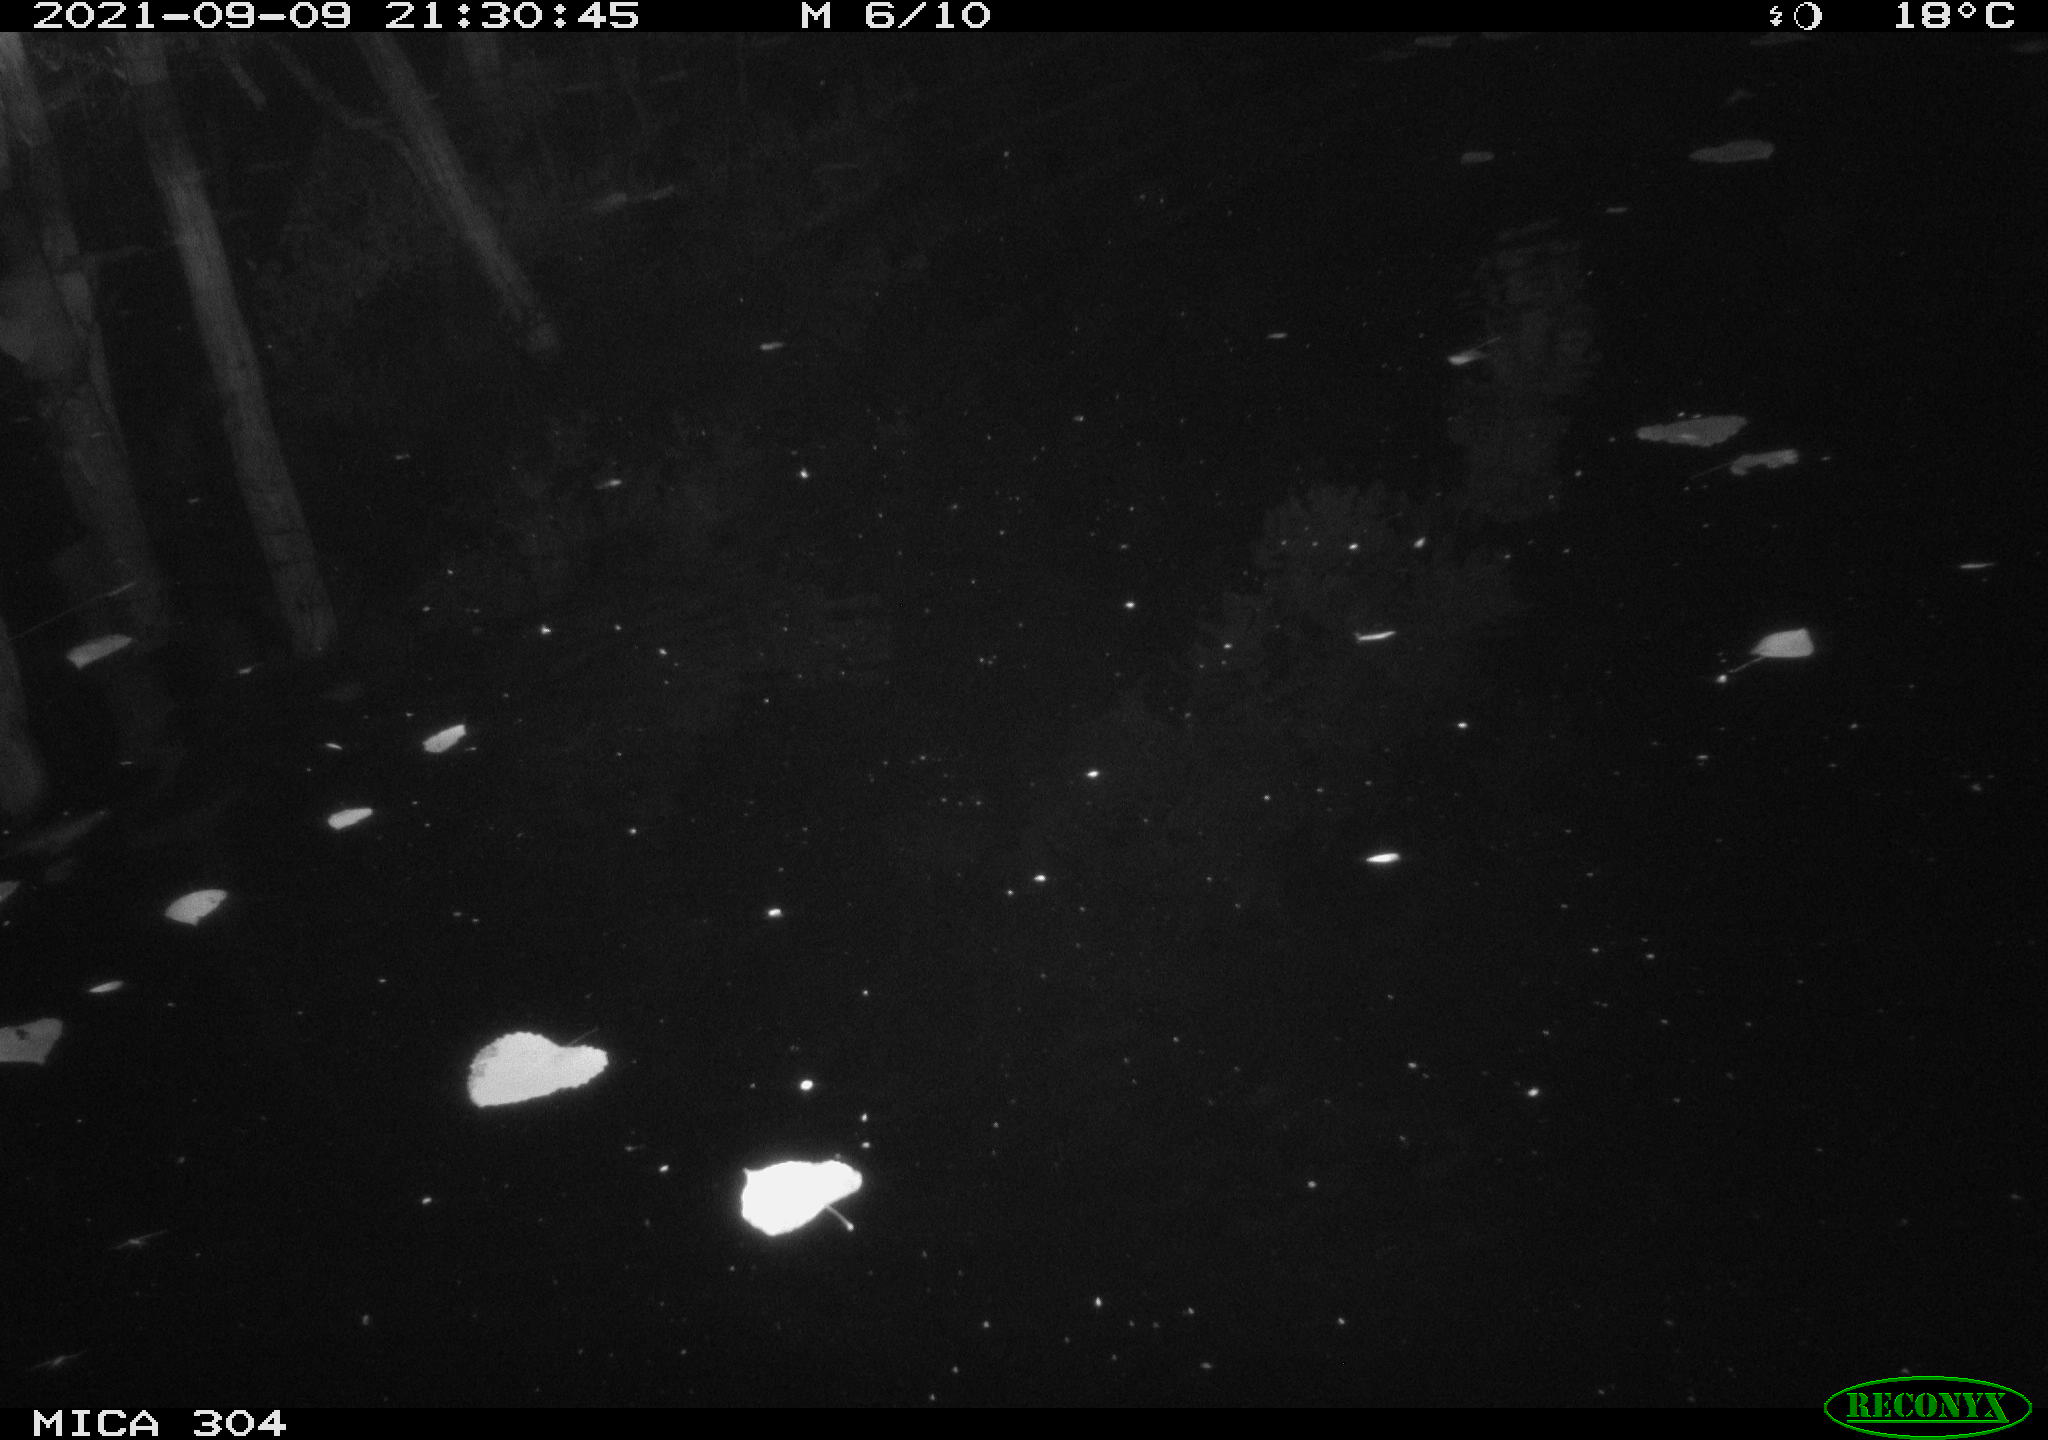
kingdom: Animalia
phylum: Chordata
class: Mammalia
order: Rodentia
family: Muridae
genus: Rattus
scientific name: Rattus norvegicus
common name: Brown rat
